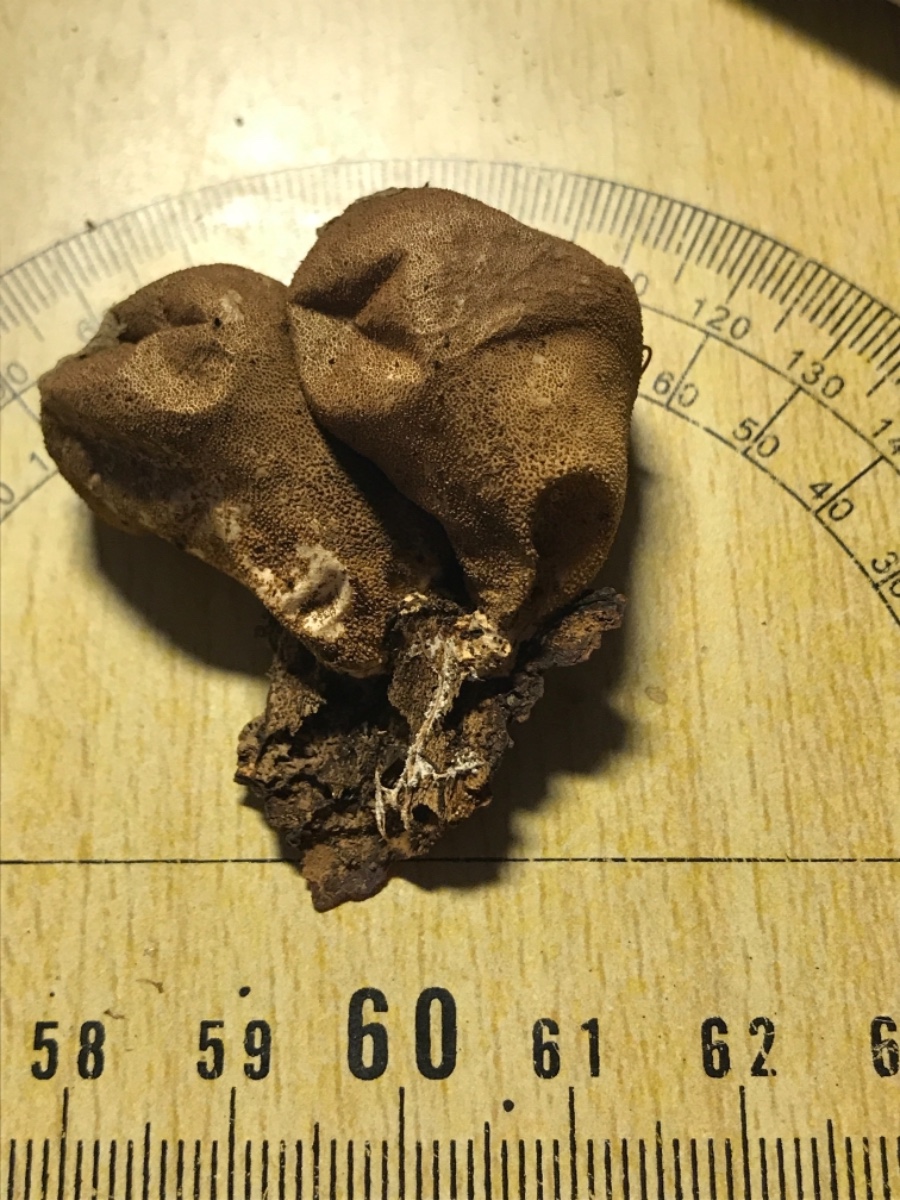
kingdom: Fungi
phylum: Basidiomycota
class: Agaricomycetes
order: Agaricales
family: Lycoperdaceae
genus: Apioperdon
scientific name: Apioperdon pyriforme
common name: pære-støvbold
